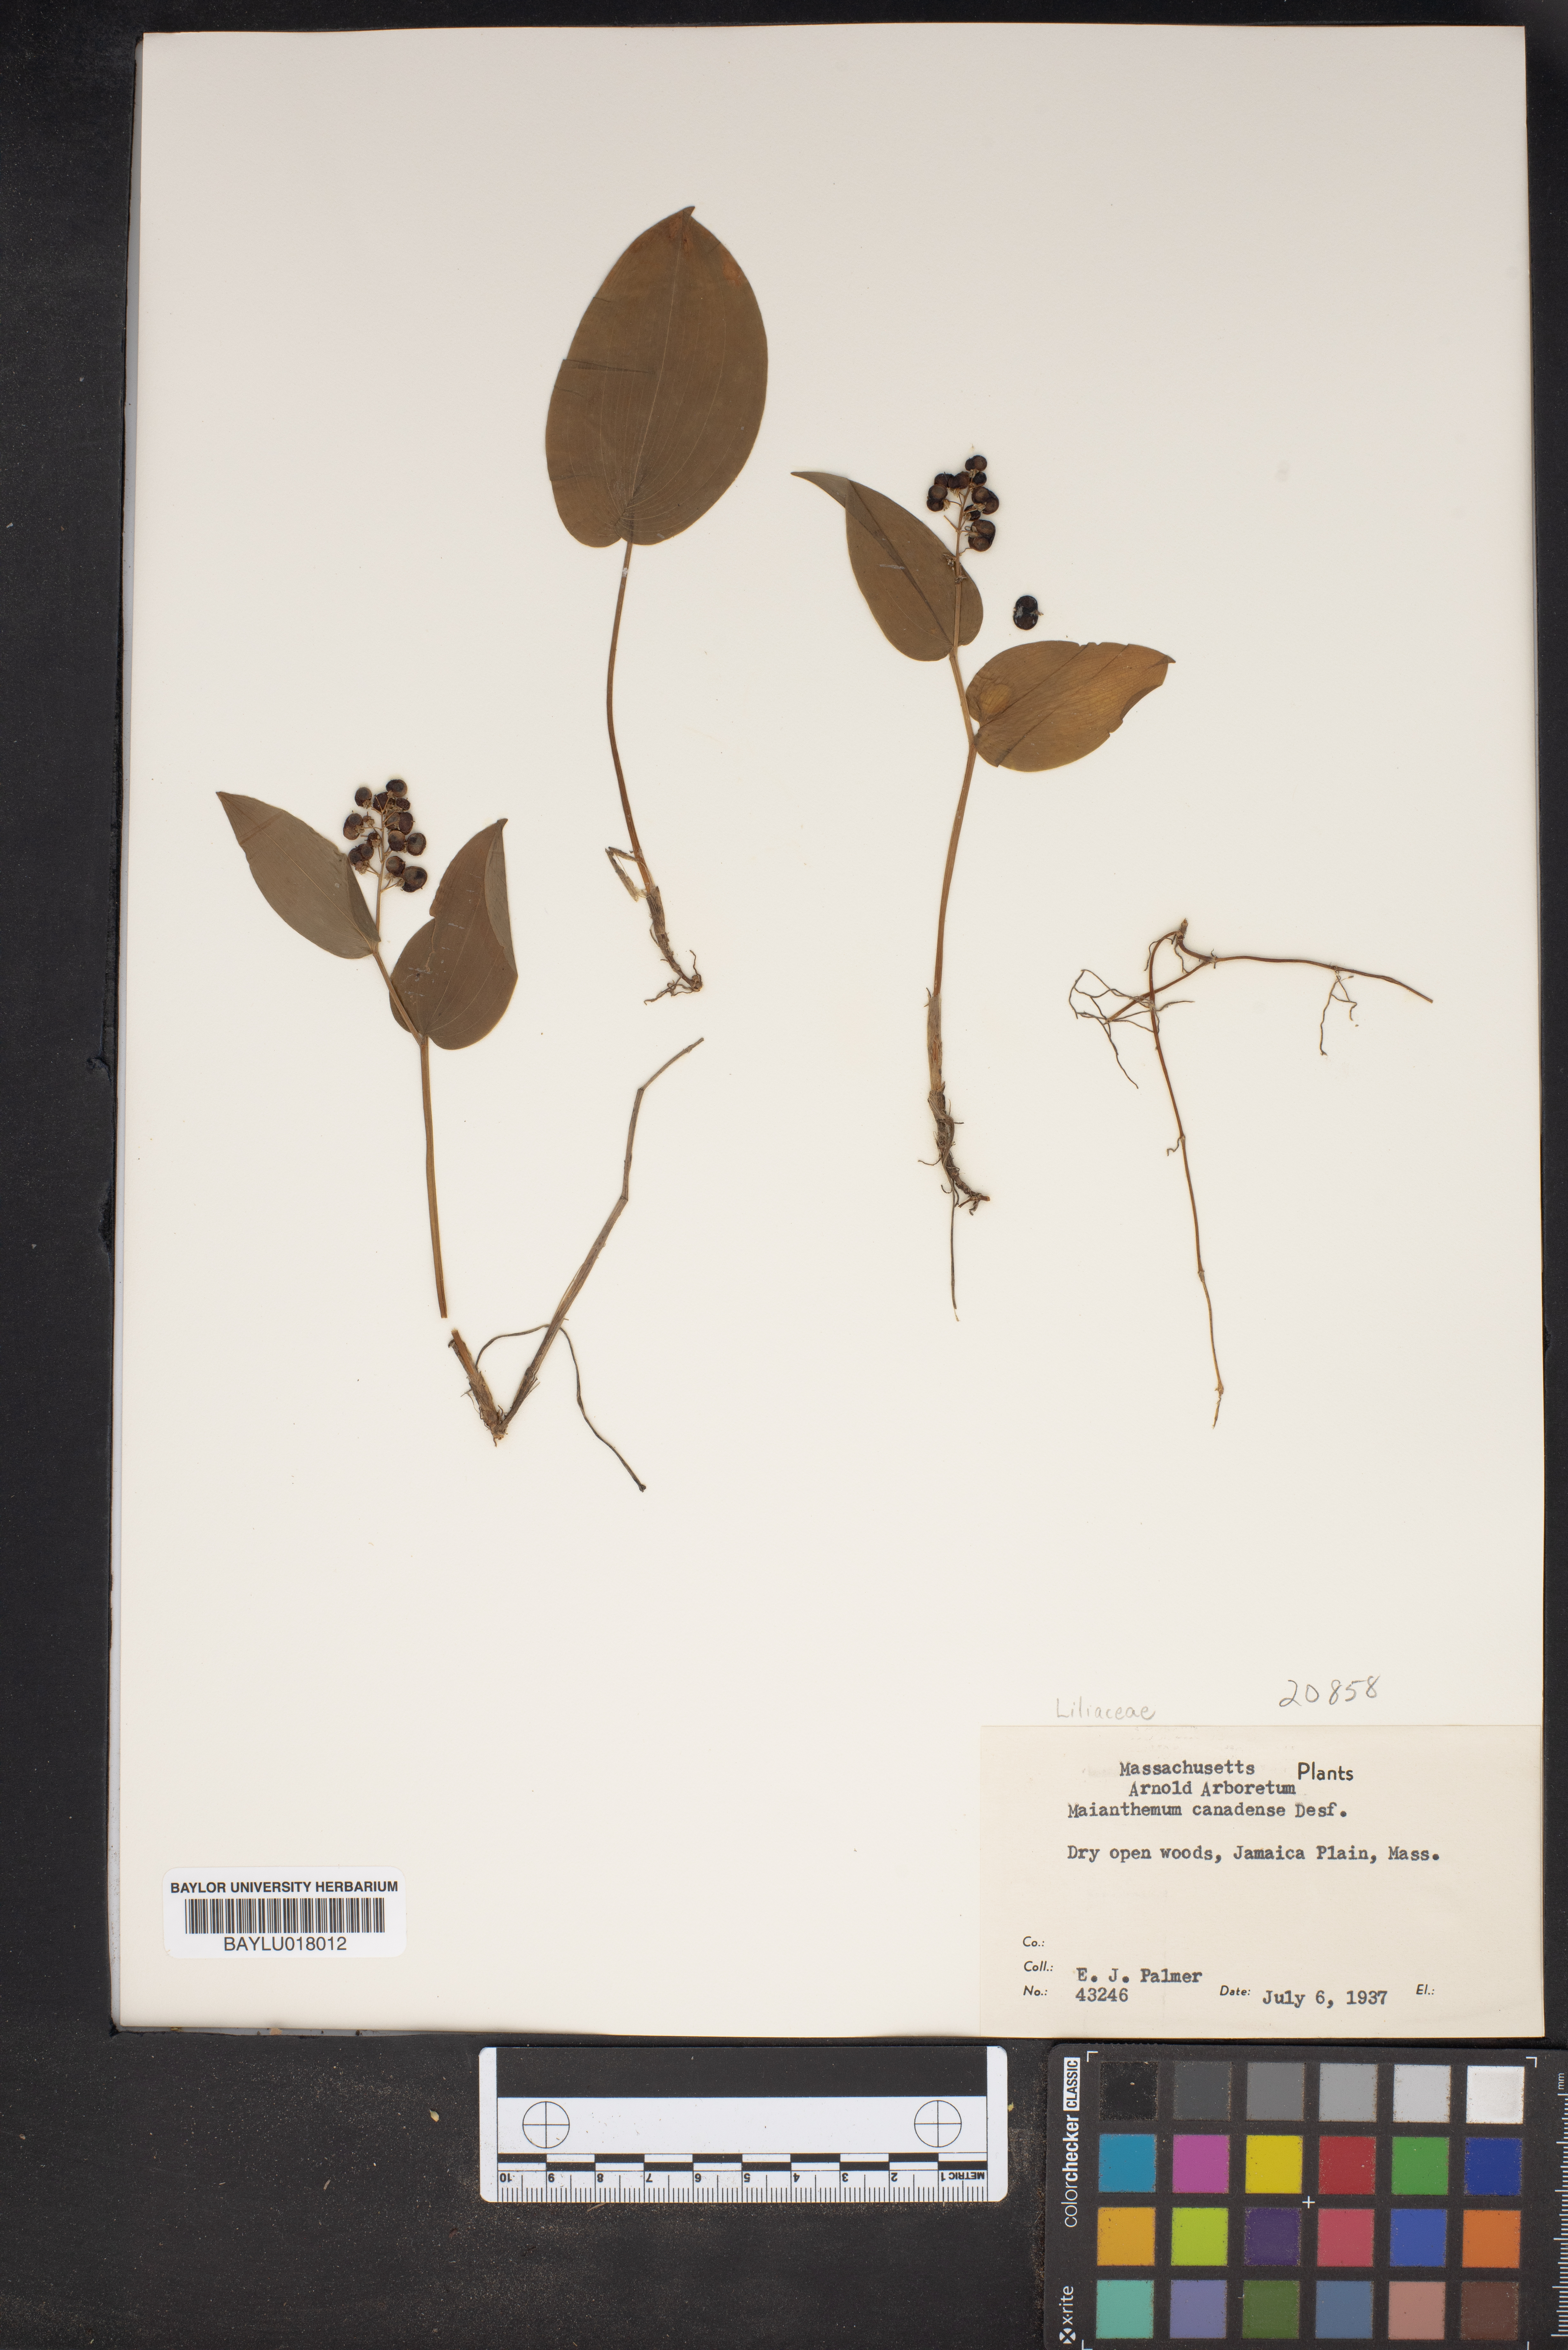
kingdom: Plantae
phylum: Tracheophyta
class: Liliopsida
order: Asparagales
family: Asparagaceae
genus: Maianthemum
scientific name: Maianthemum canadense
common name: False lily-of-the-valley
